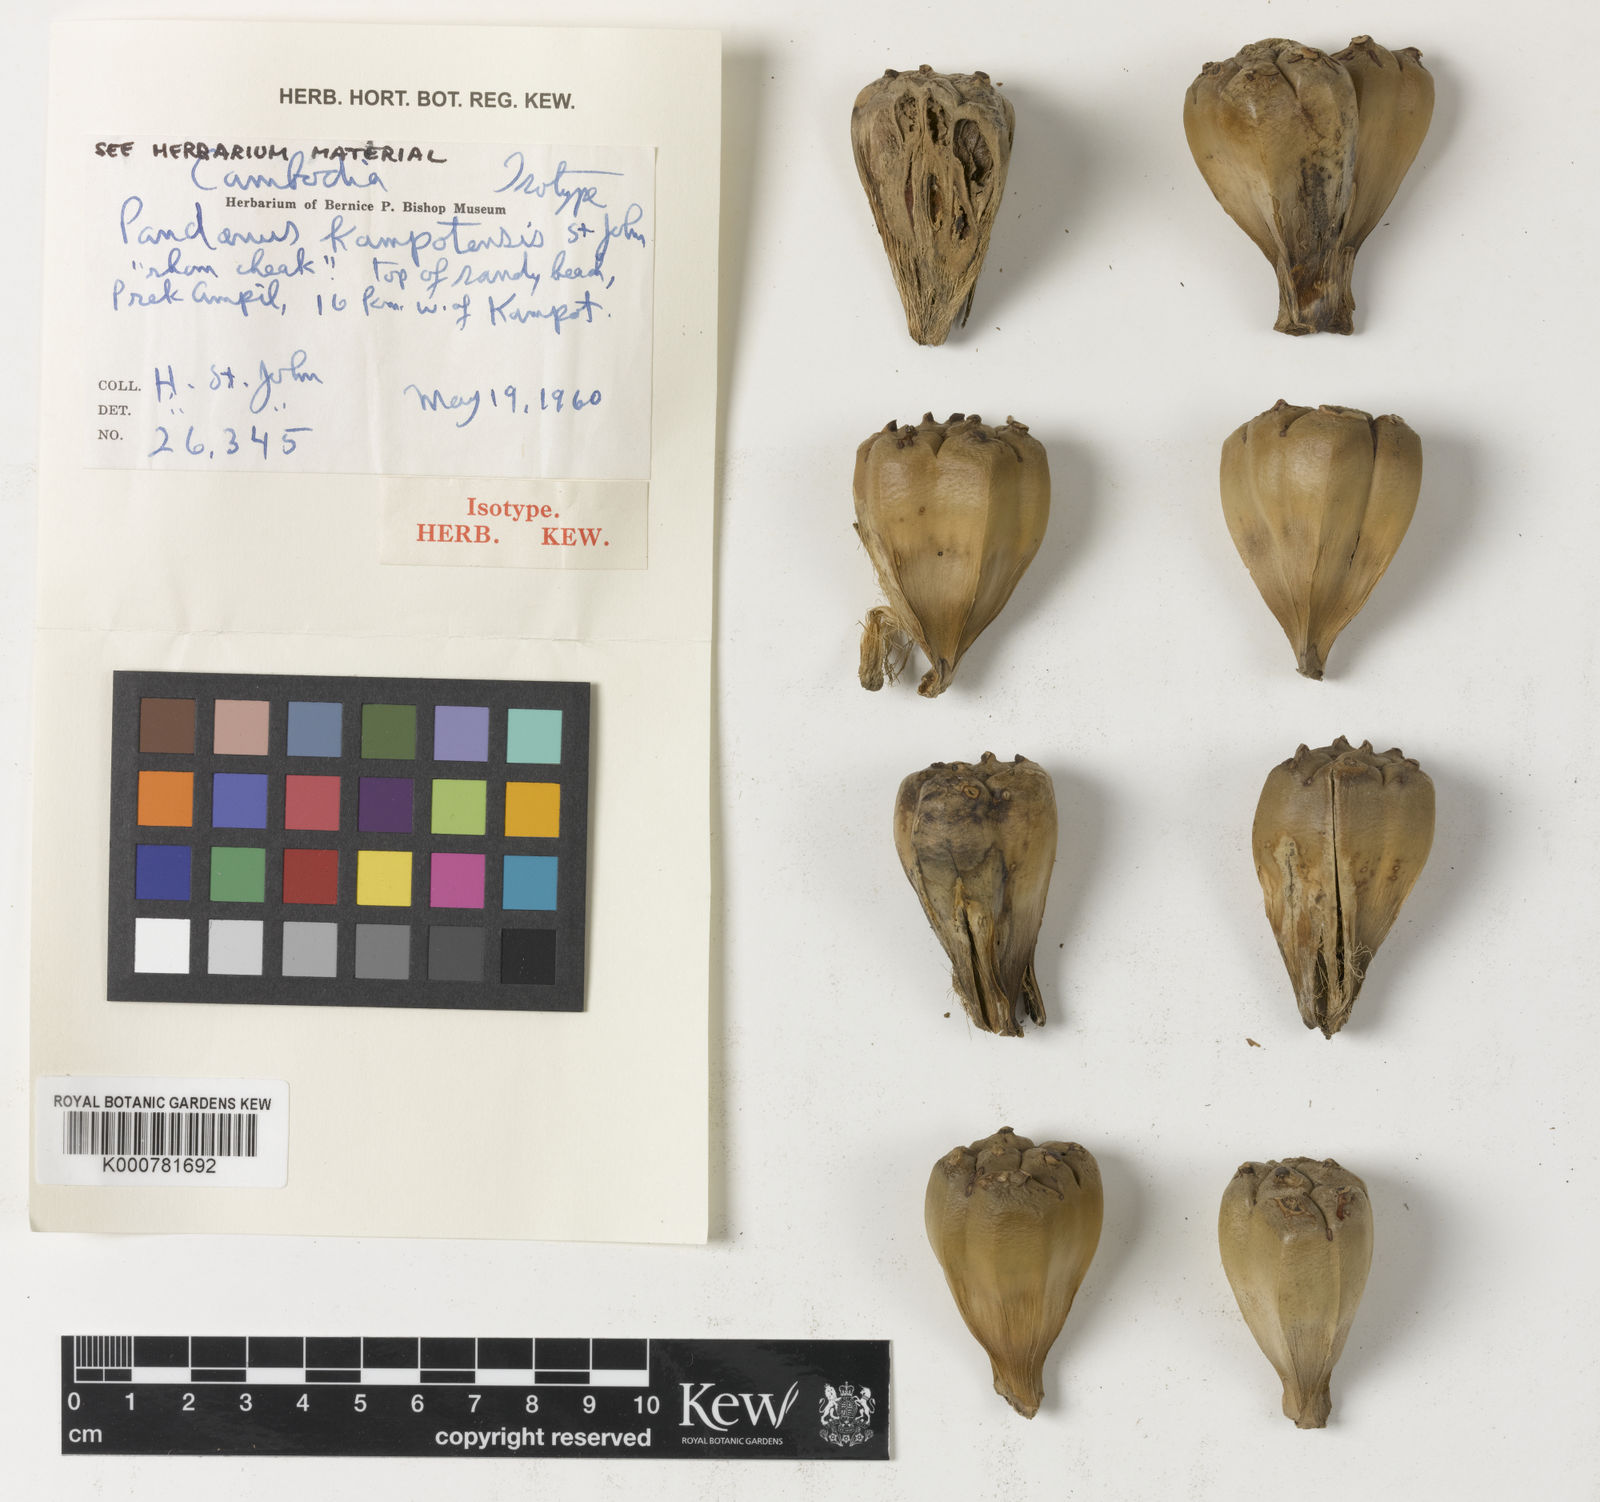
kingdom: Plantae
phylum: Tracheophyta
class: Liliopsida
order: Pandanales
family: Pandanaceae
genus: Pandanus
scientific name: Pandanus
